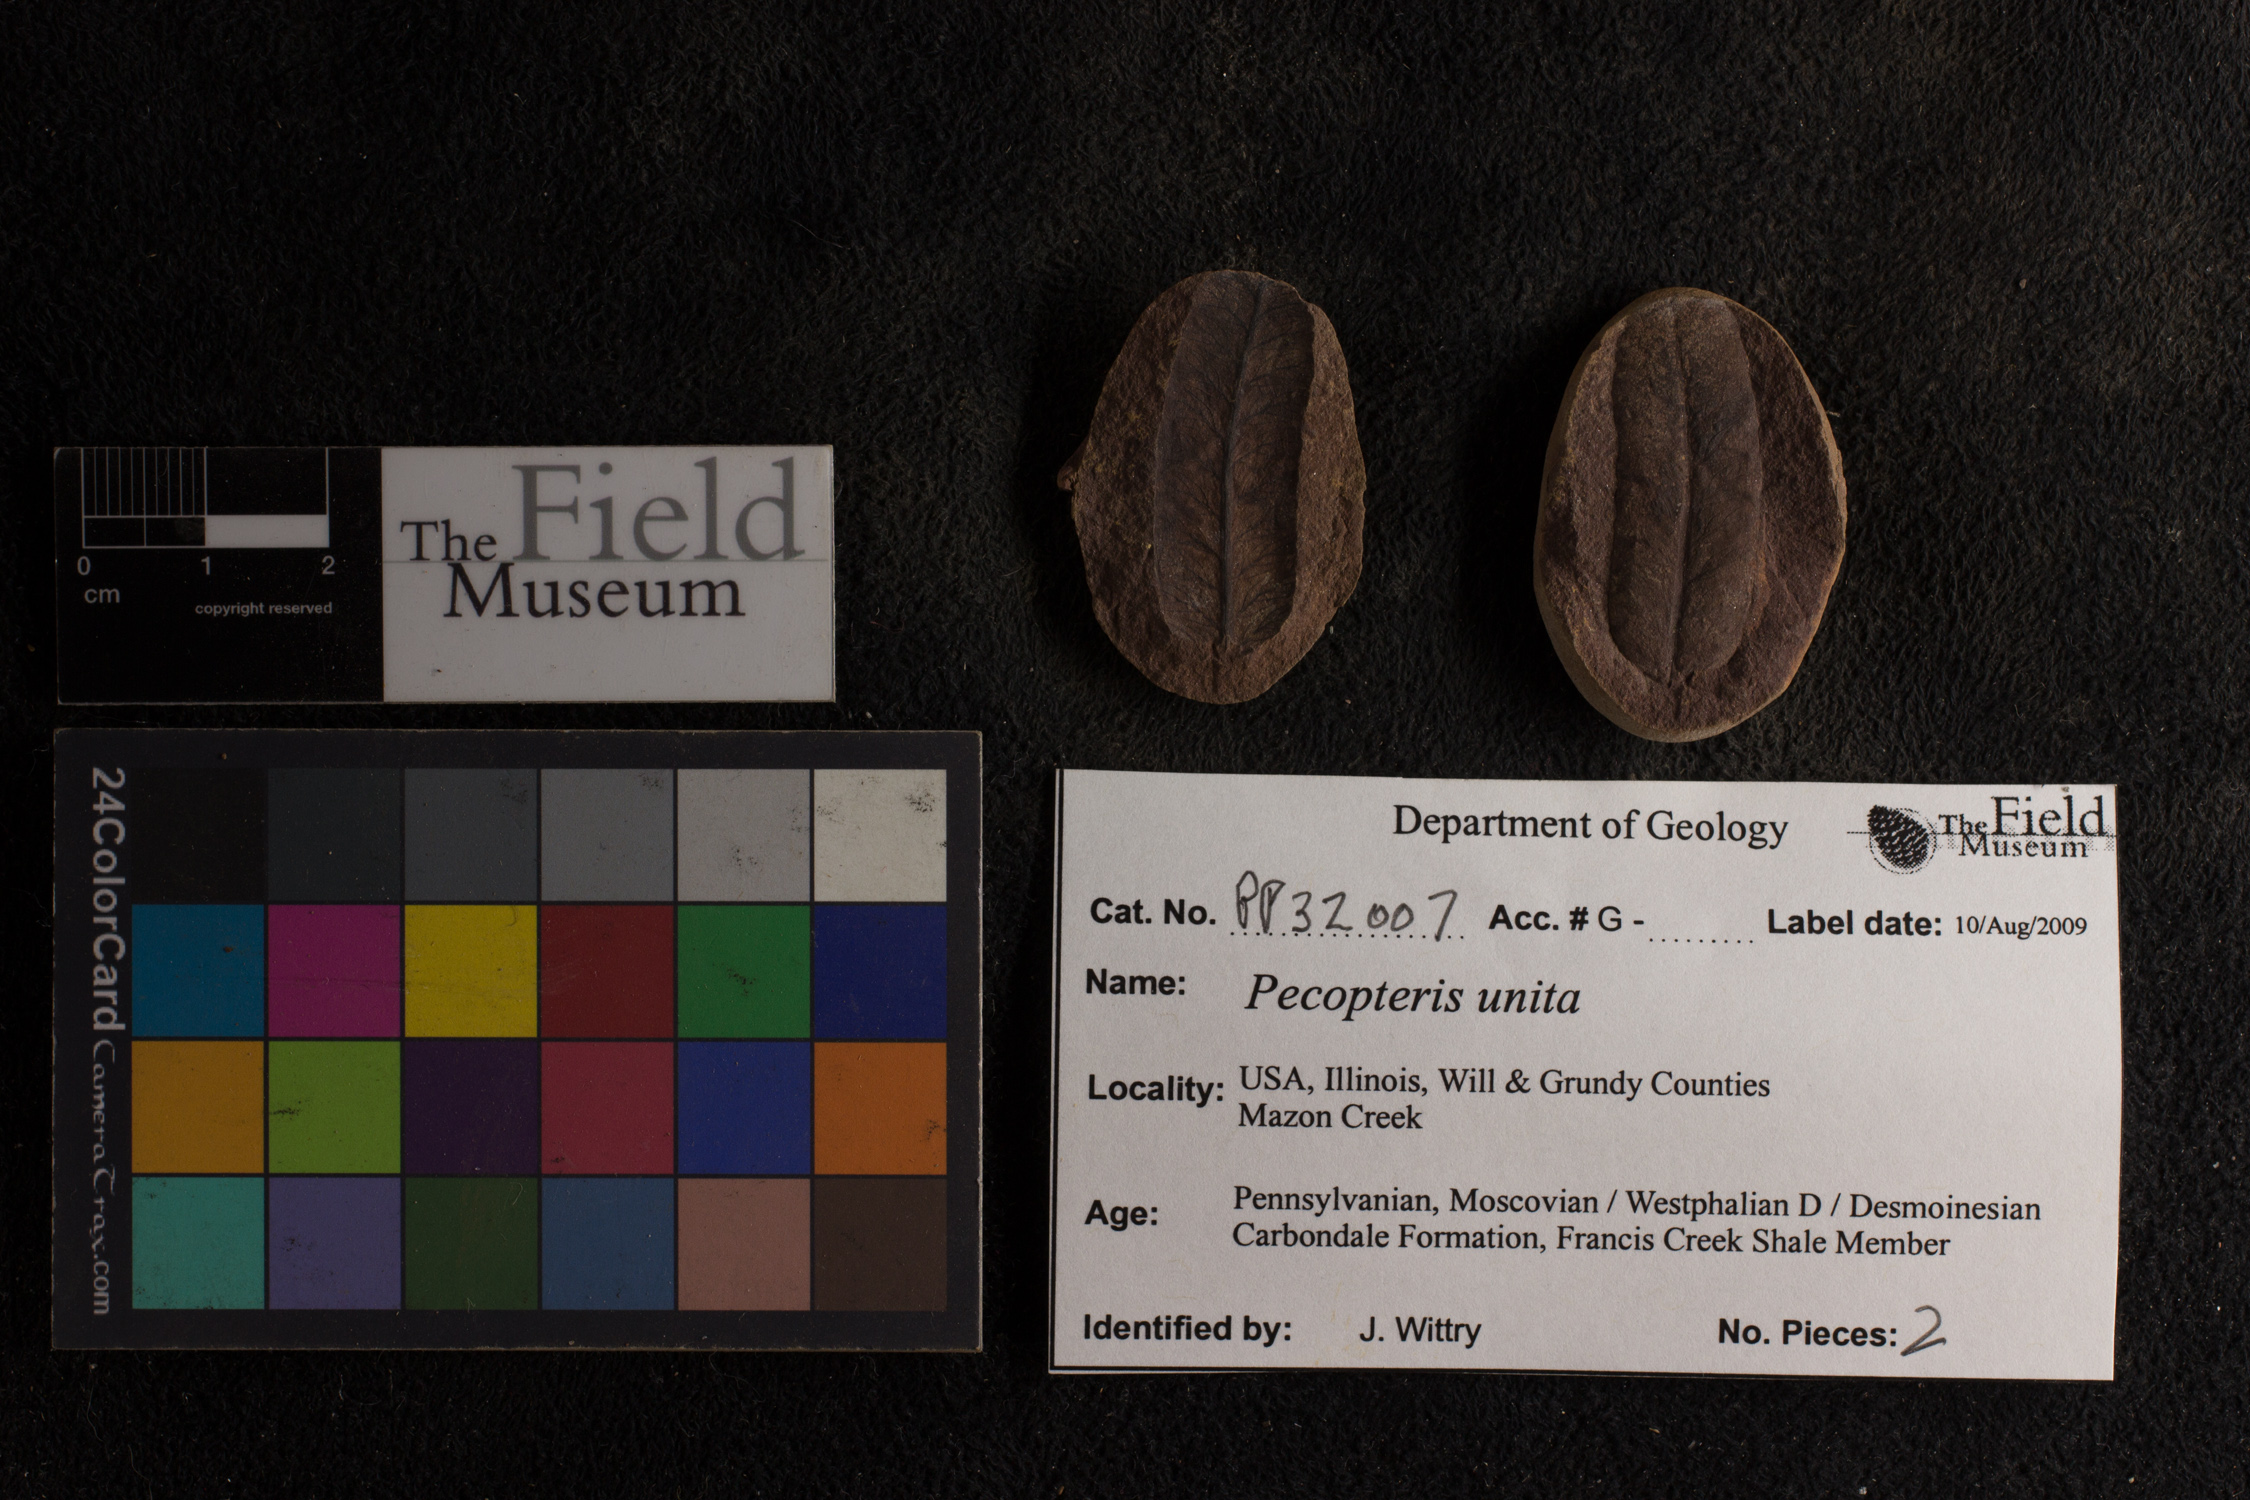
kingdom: Plantae
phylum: Tracheophyta
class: Polypodiopsida
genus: Diplazites
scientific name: Diplazites
